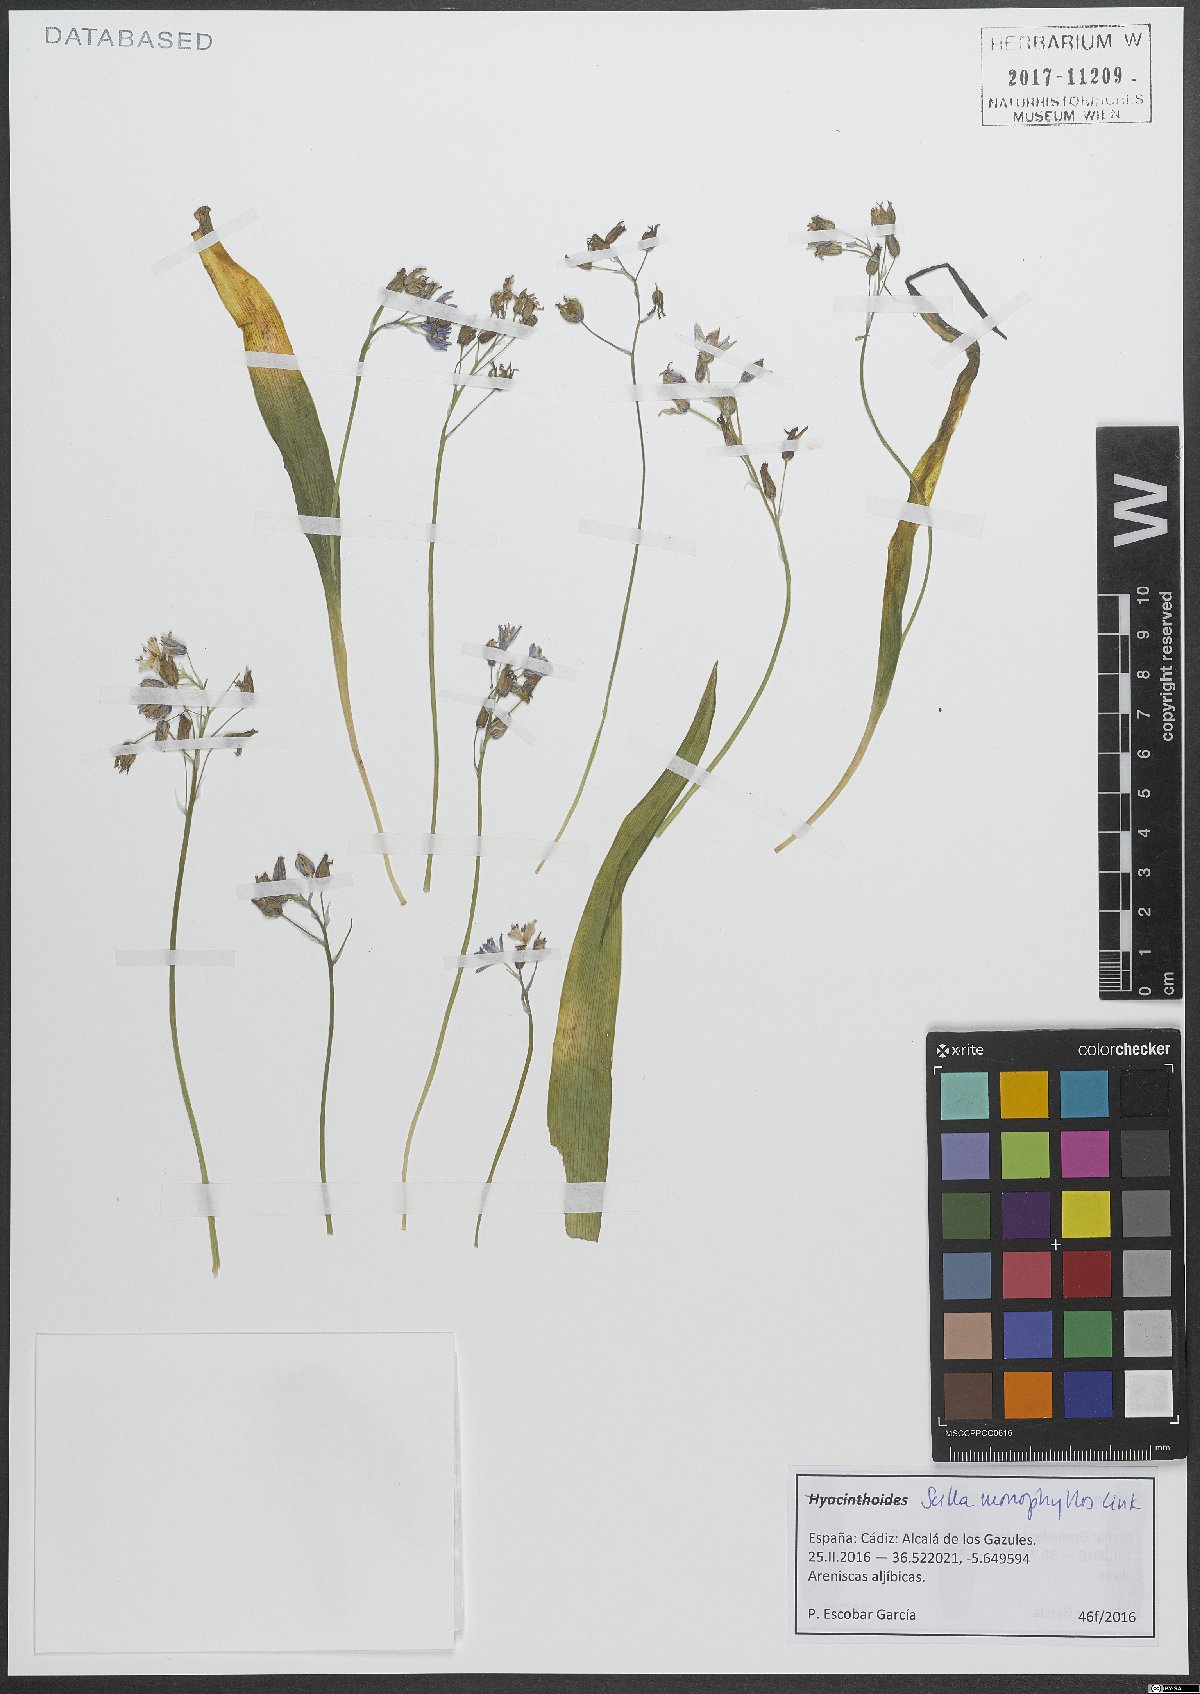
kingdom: Plantae
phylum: Tracheophyta
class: Liliopsida
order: Asparagales
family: Asparagaceae
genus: Scilla
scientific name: Scilla monophyllos
